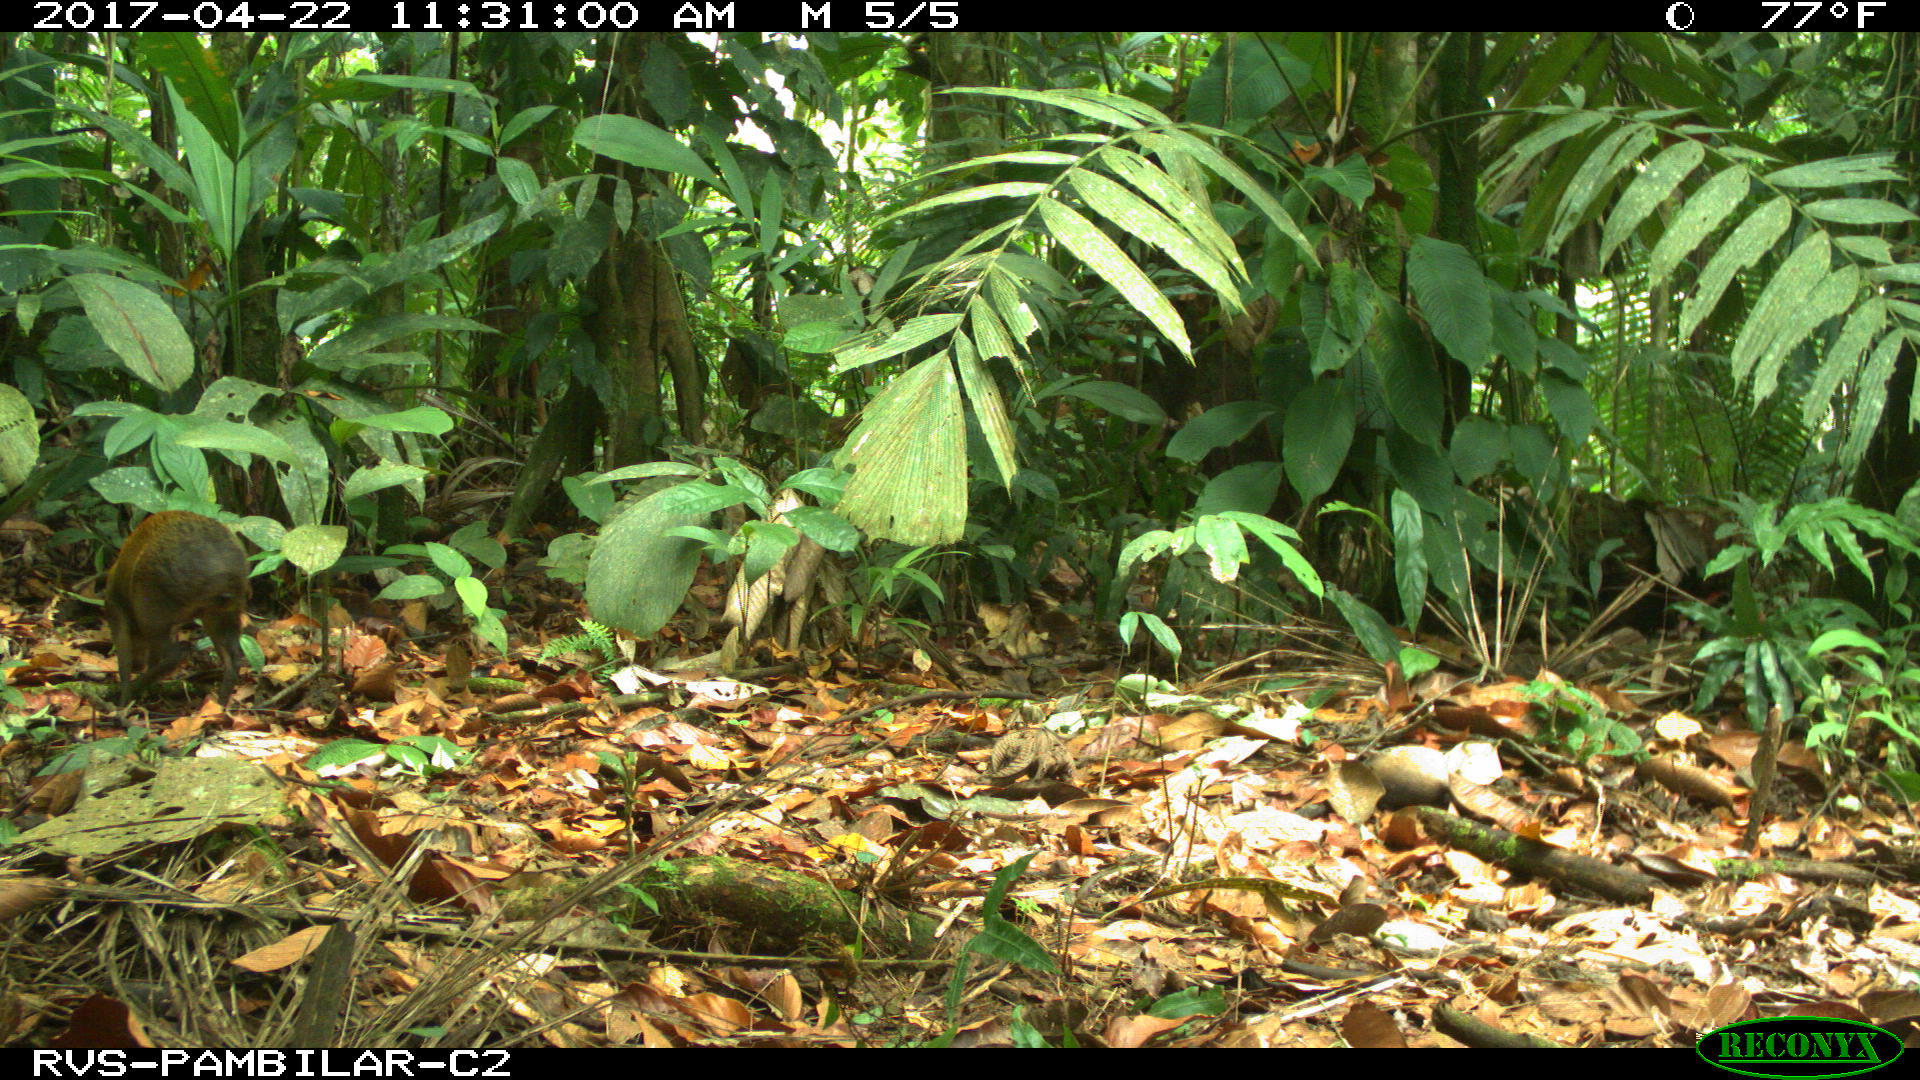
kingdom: Animalia
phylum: Chordata
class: Mammalia
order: Rodentia
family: Dasyproctidae
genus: Dasyprocta
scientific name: Dasyprocta punctata
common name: Central american agouti
